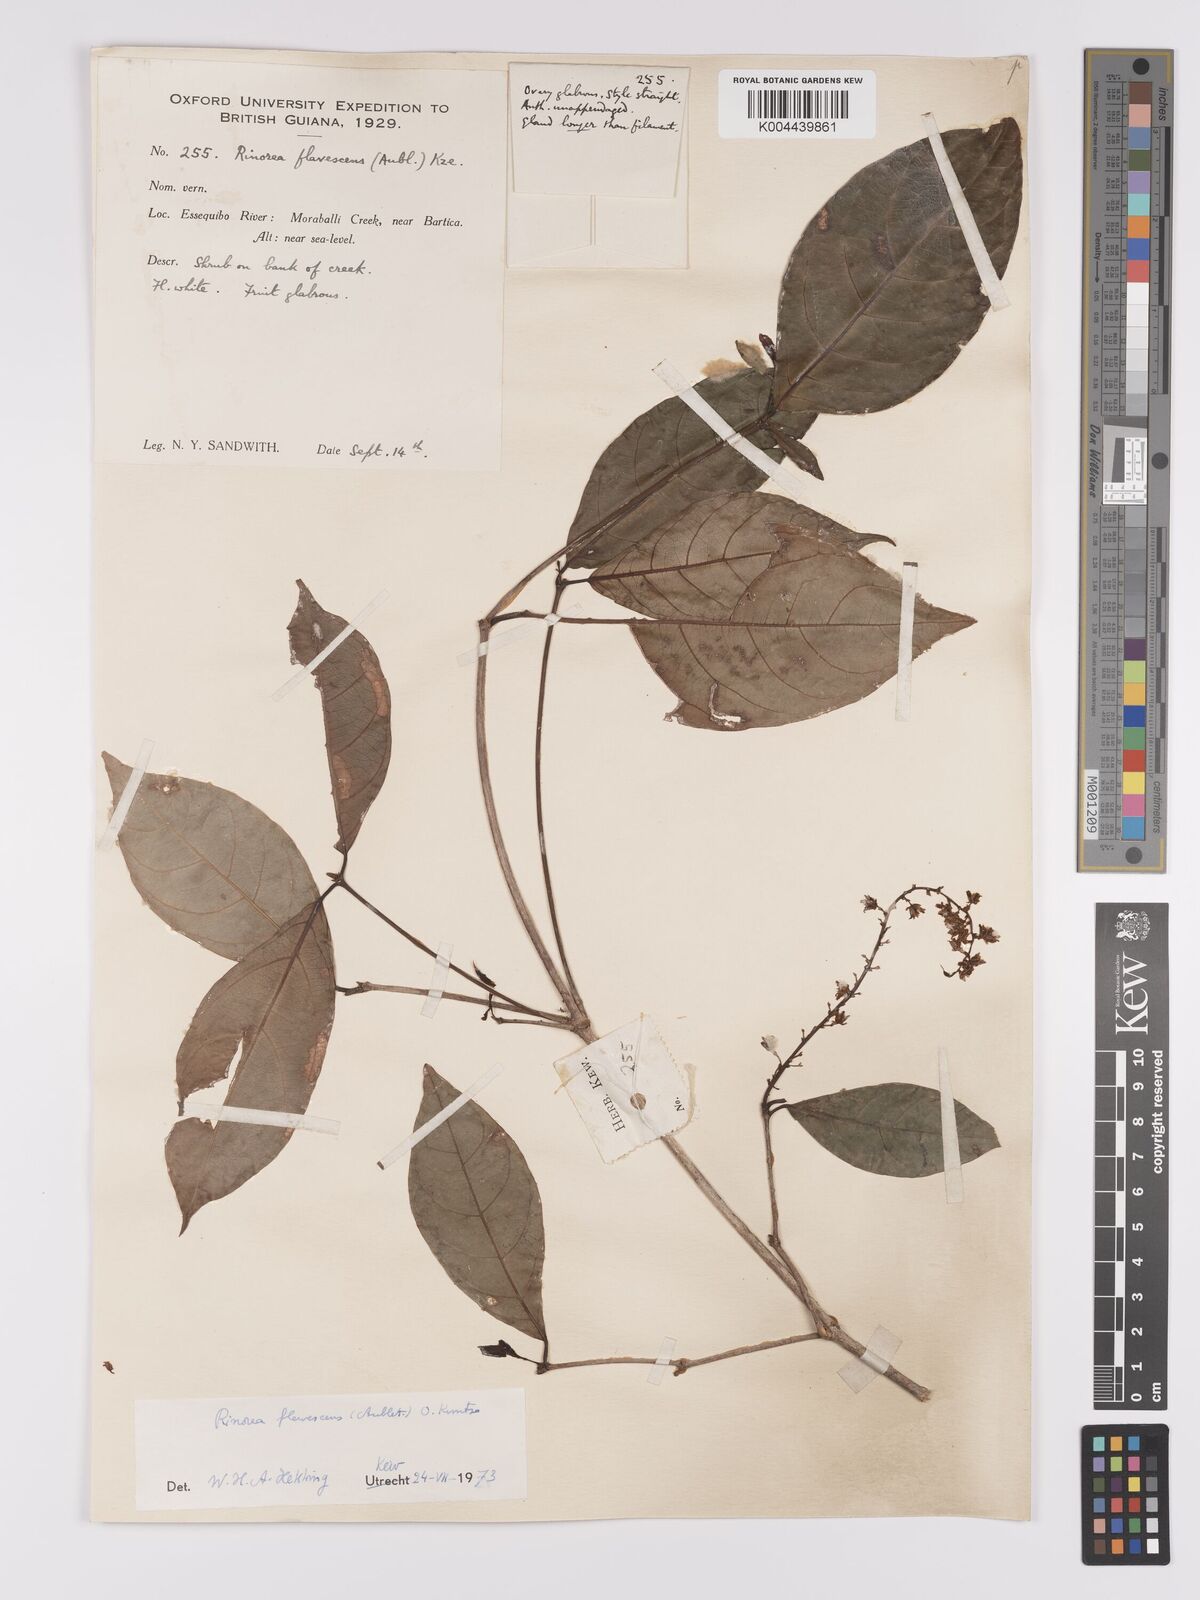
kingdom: Plantae
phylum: Tracheophyta
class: Magnoliopsida
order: Malpighiales
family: Violaceae
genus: Rinorea
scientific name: Rinorea flavescens
